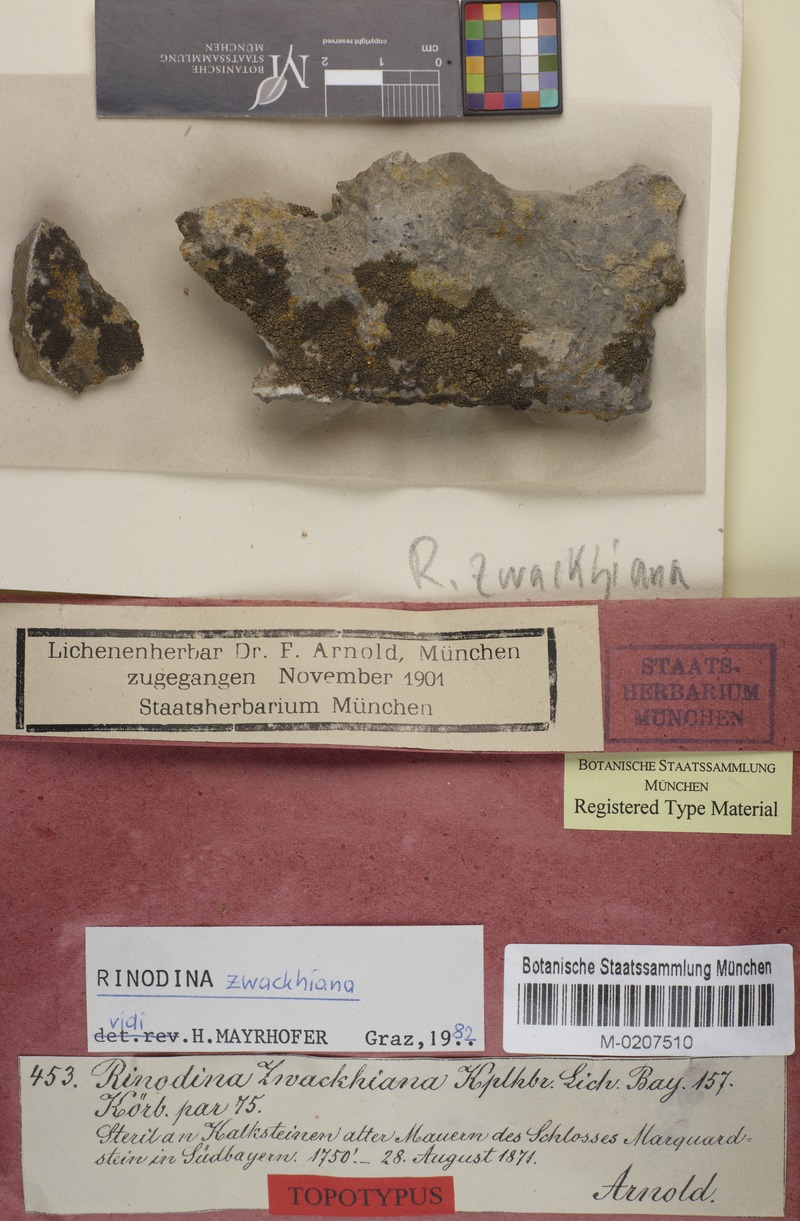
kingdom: Fungi
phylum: Ascomycota
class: Lecanoromycetes
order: Caliciales
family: Physciaceae
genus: Johnsheardia
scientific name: Johnsheardia zwackhiana
